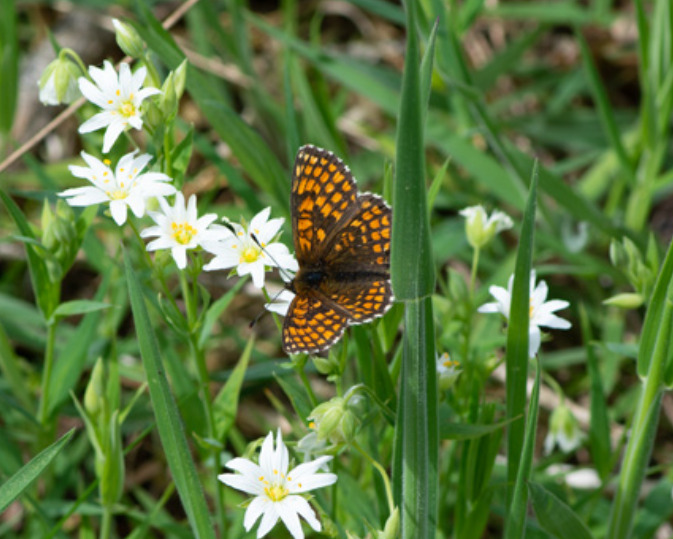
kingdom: Animalia
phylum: Arthropoda
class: Insecta
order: Lepidoptera
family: Nymphalidae
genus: Mellicta
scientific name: Mellicta athalia
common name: Brun pletvinge
